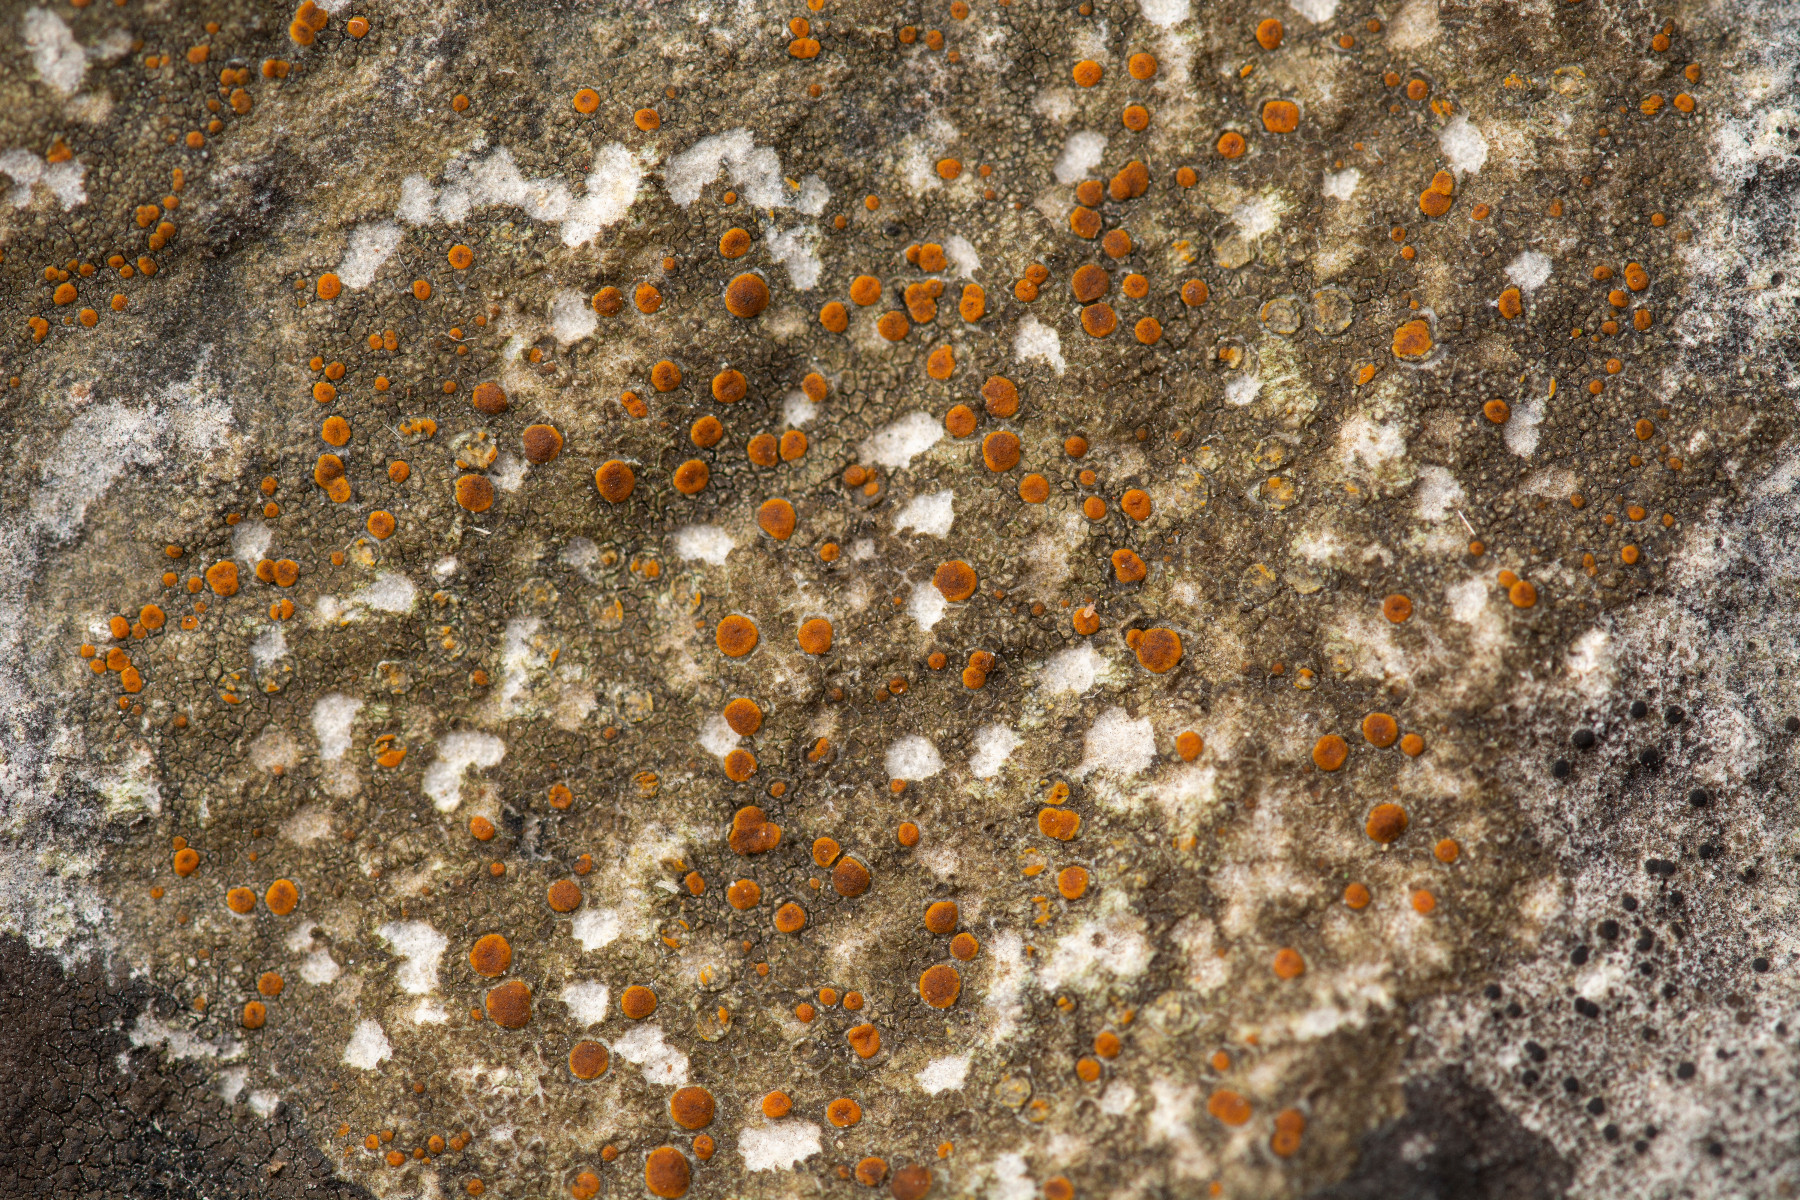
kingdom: Fungi
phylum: Ascomycota
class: Lecanoromycetes
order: Lecanorales
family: Psoraceae
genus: Protoblastenia
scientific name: Protoblastenia rupestris
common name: kalk-gulskivelav
